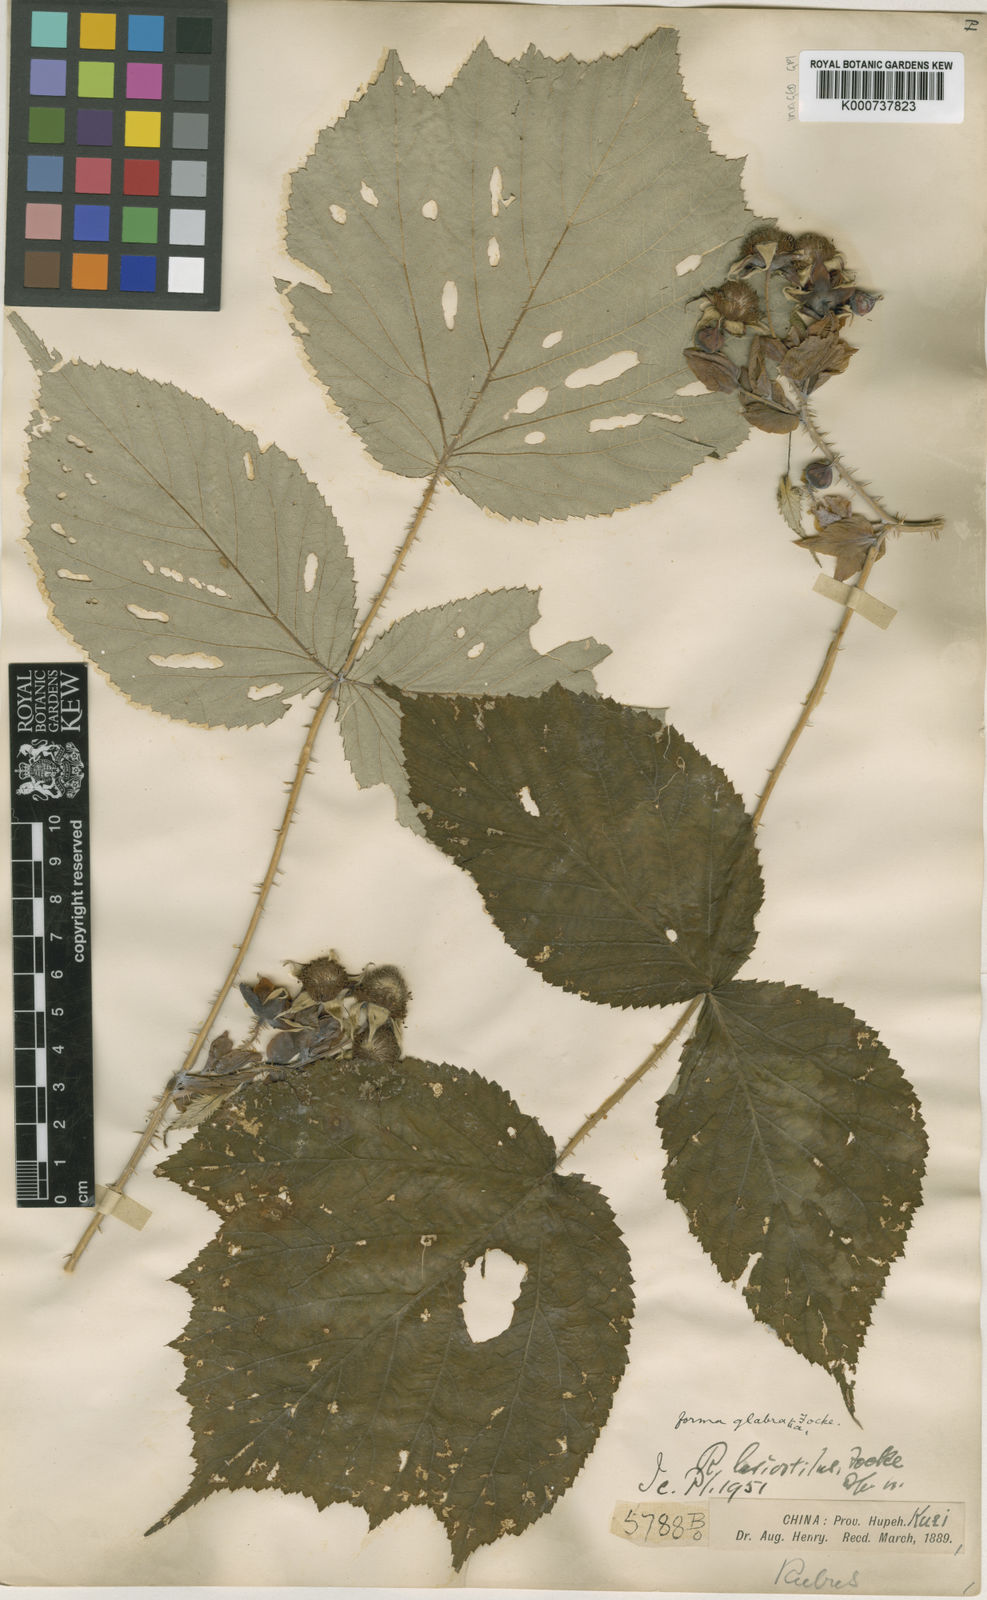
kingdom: Plantae
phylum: Tracheophyta
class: Magnoliopsida
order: Rosales
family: Rosaceae
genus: Rubus
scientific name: Rubus
